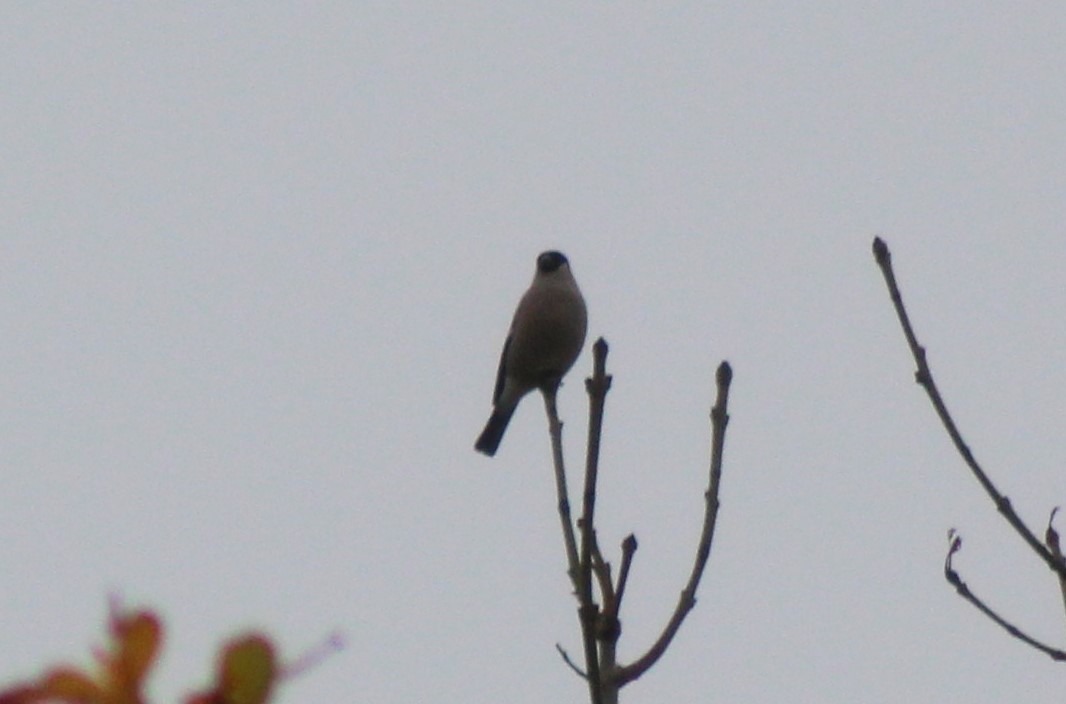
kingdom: Animalia
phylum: Chordata
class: Aves
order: Passeriformes
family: Fringillidae
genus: Pyrrhula
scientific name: Pyrrhula pyrrhula
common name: Dompap
